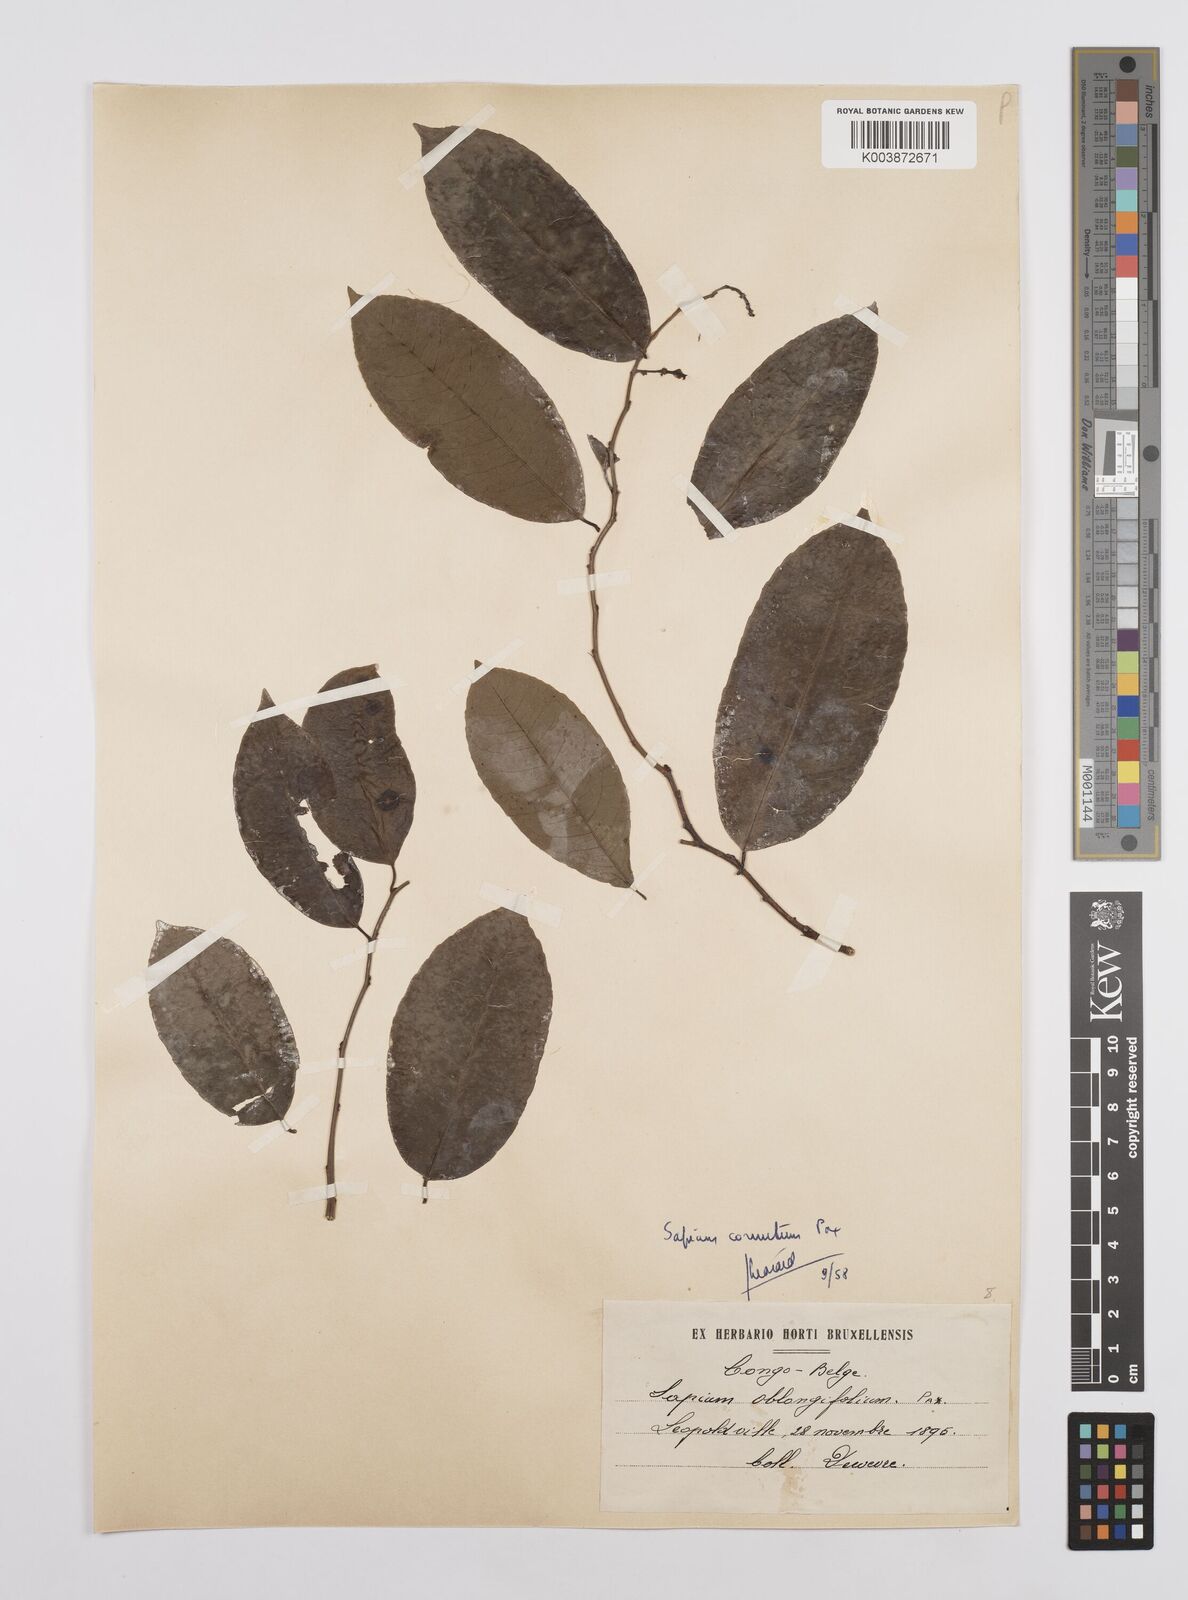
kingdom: Plantae
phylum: Tracheophyta
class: Magnoliopsida
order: Malpighiales
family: Euphorbiaceae
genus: Sclerocroton
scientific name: Sclerocroton cornutus
